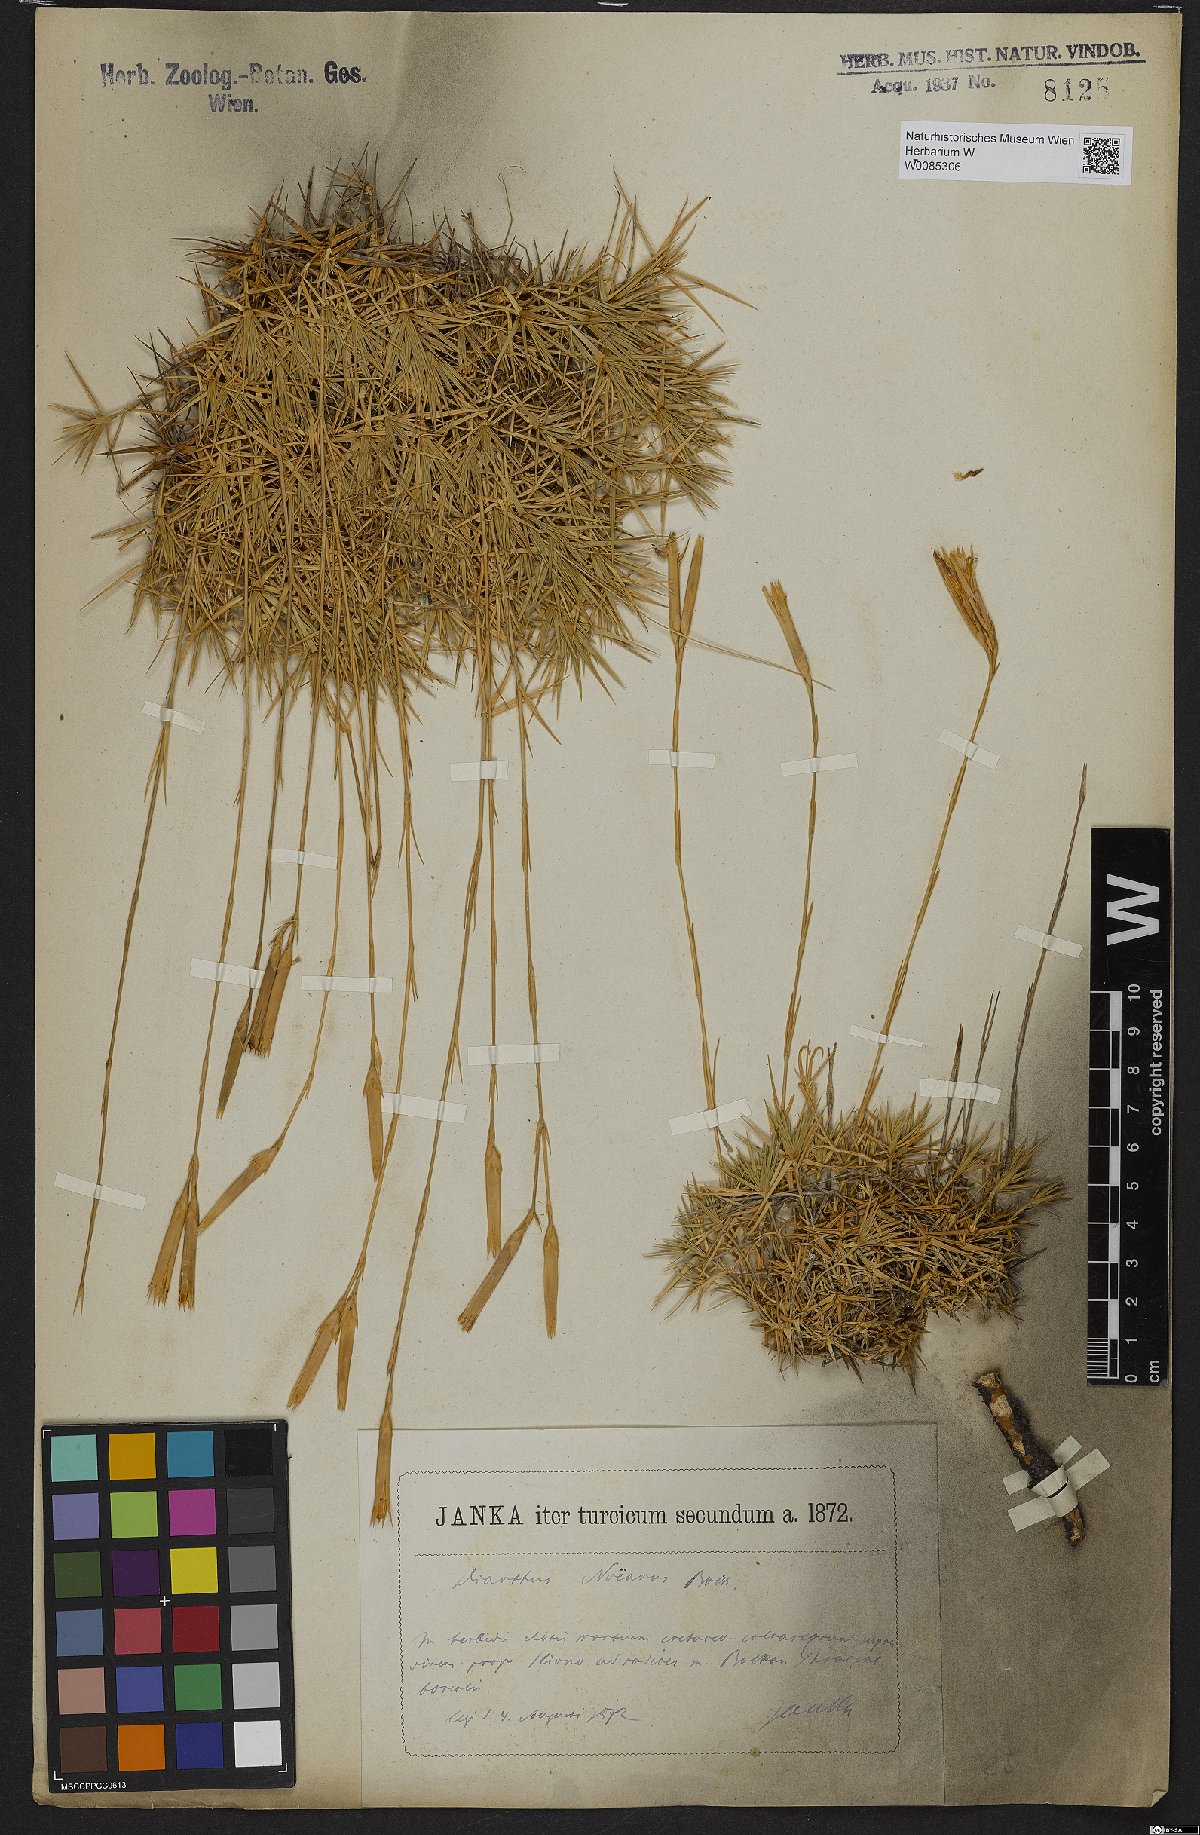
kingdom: Plantae
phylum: Tracheophyta
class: Magnoliopsida
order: Caryophyllales
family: Caryophyllaceae
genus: Dianthus
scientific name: Dianthus petraeus
